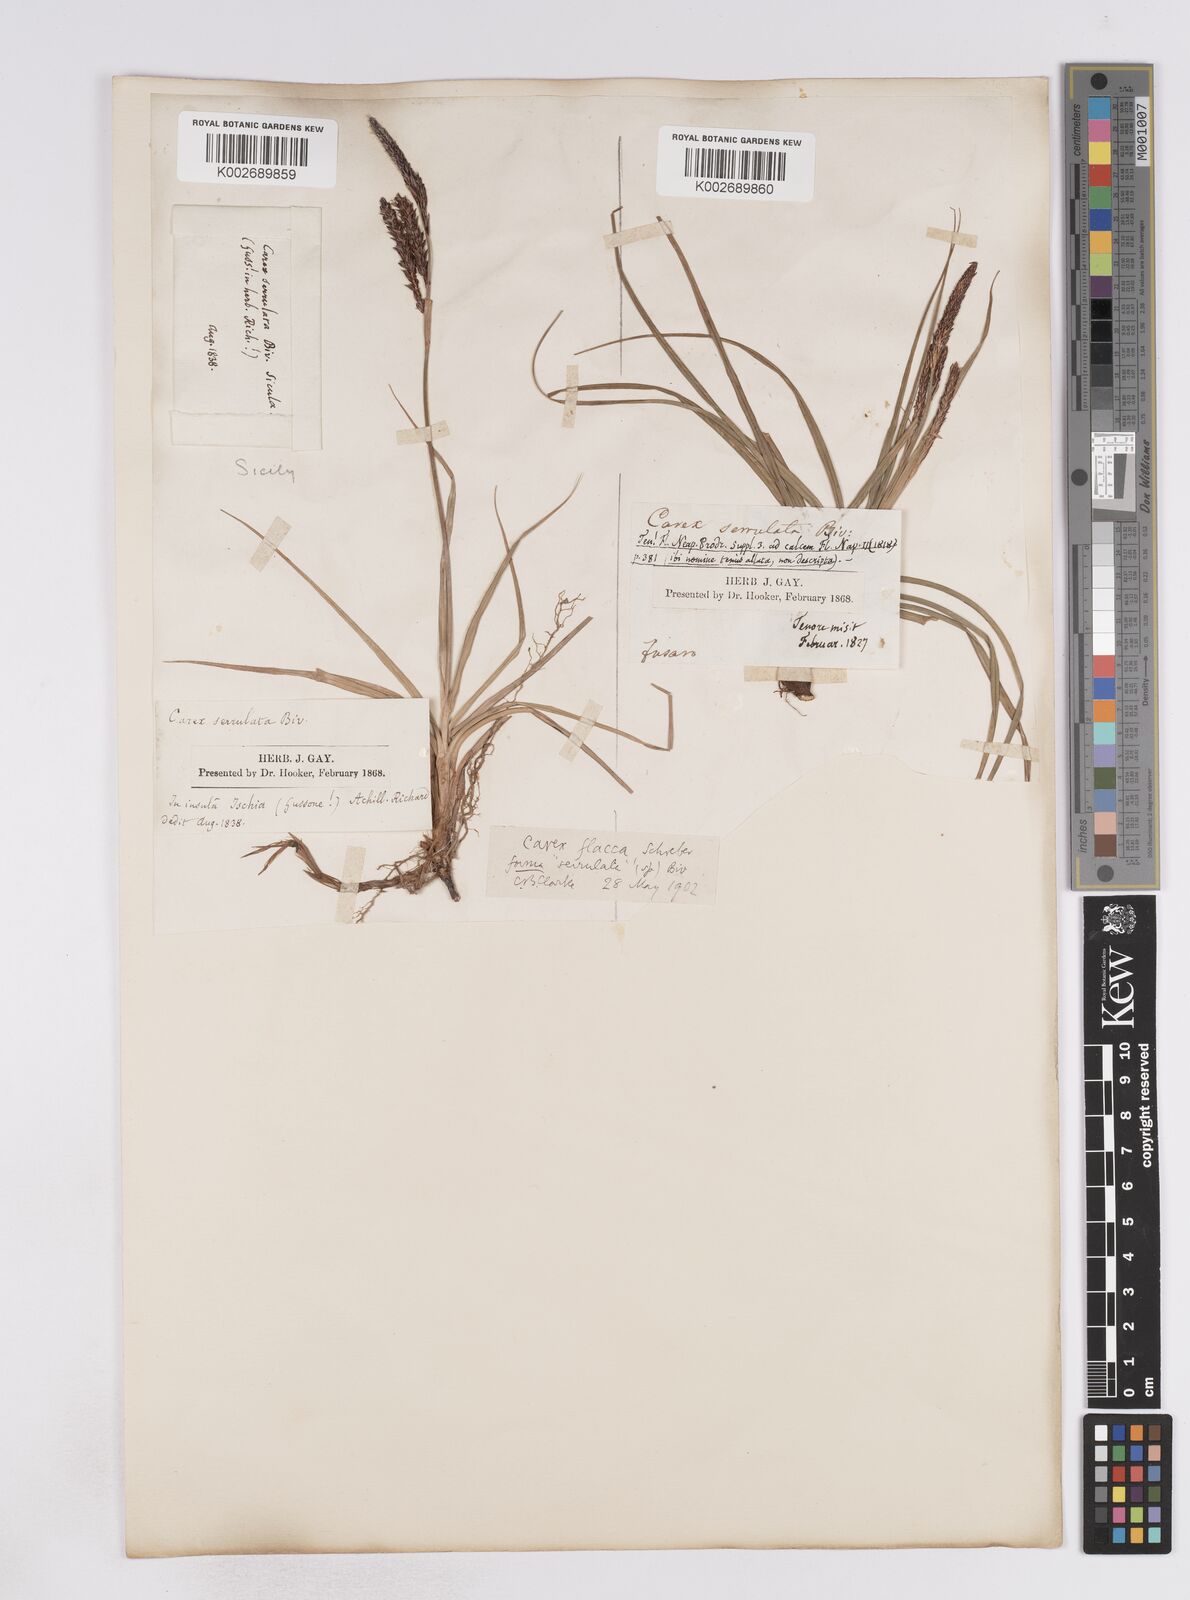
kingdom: Plantae
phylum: Tracheophyta
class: Liliopsida
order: Poales
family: Cyperaceae
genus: Carex
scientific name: Carex flacca
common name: Glaucous sedge
